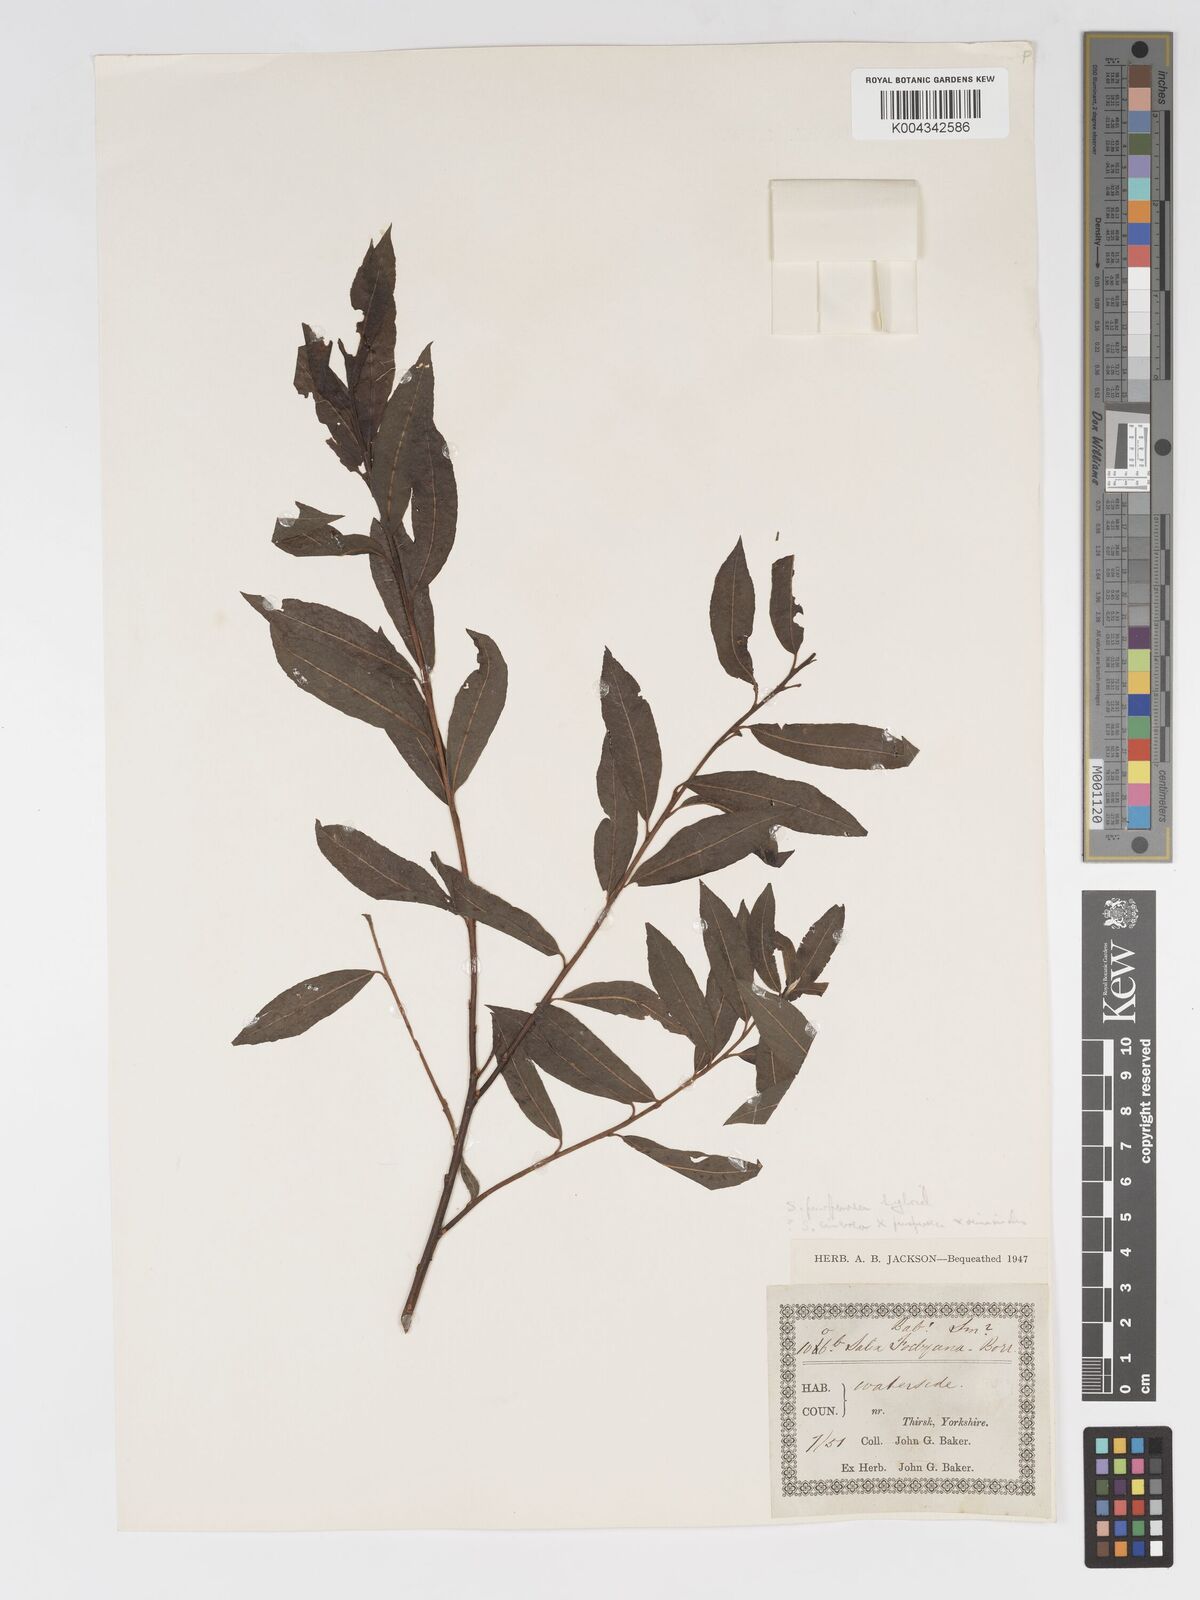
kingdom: Plantae
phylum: Tracheophyta
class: Magnoliopsida
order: Malpighiales
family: Salicaceae
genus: Salix
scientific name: Salix cinerea
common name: Common sallow
